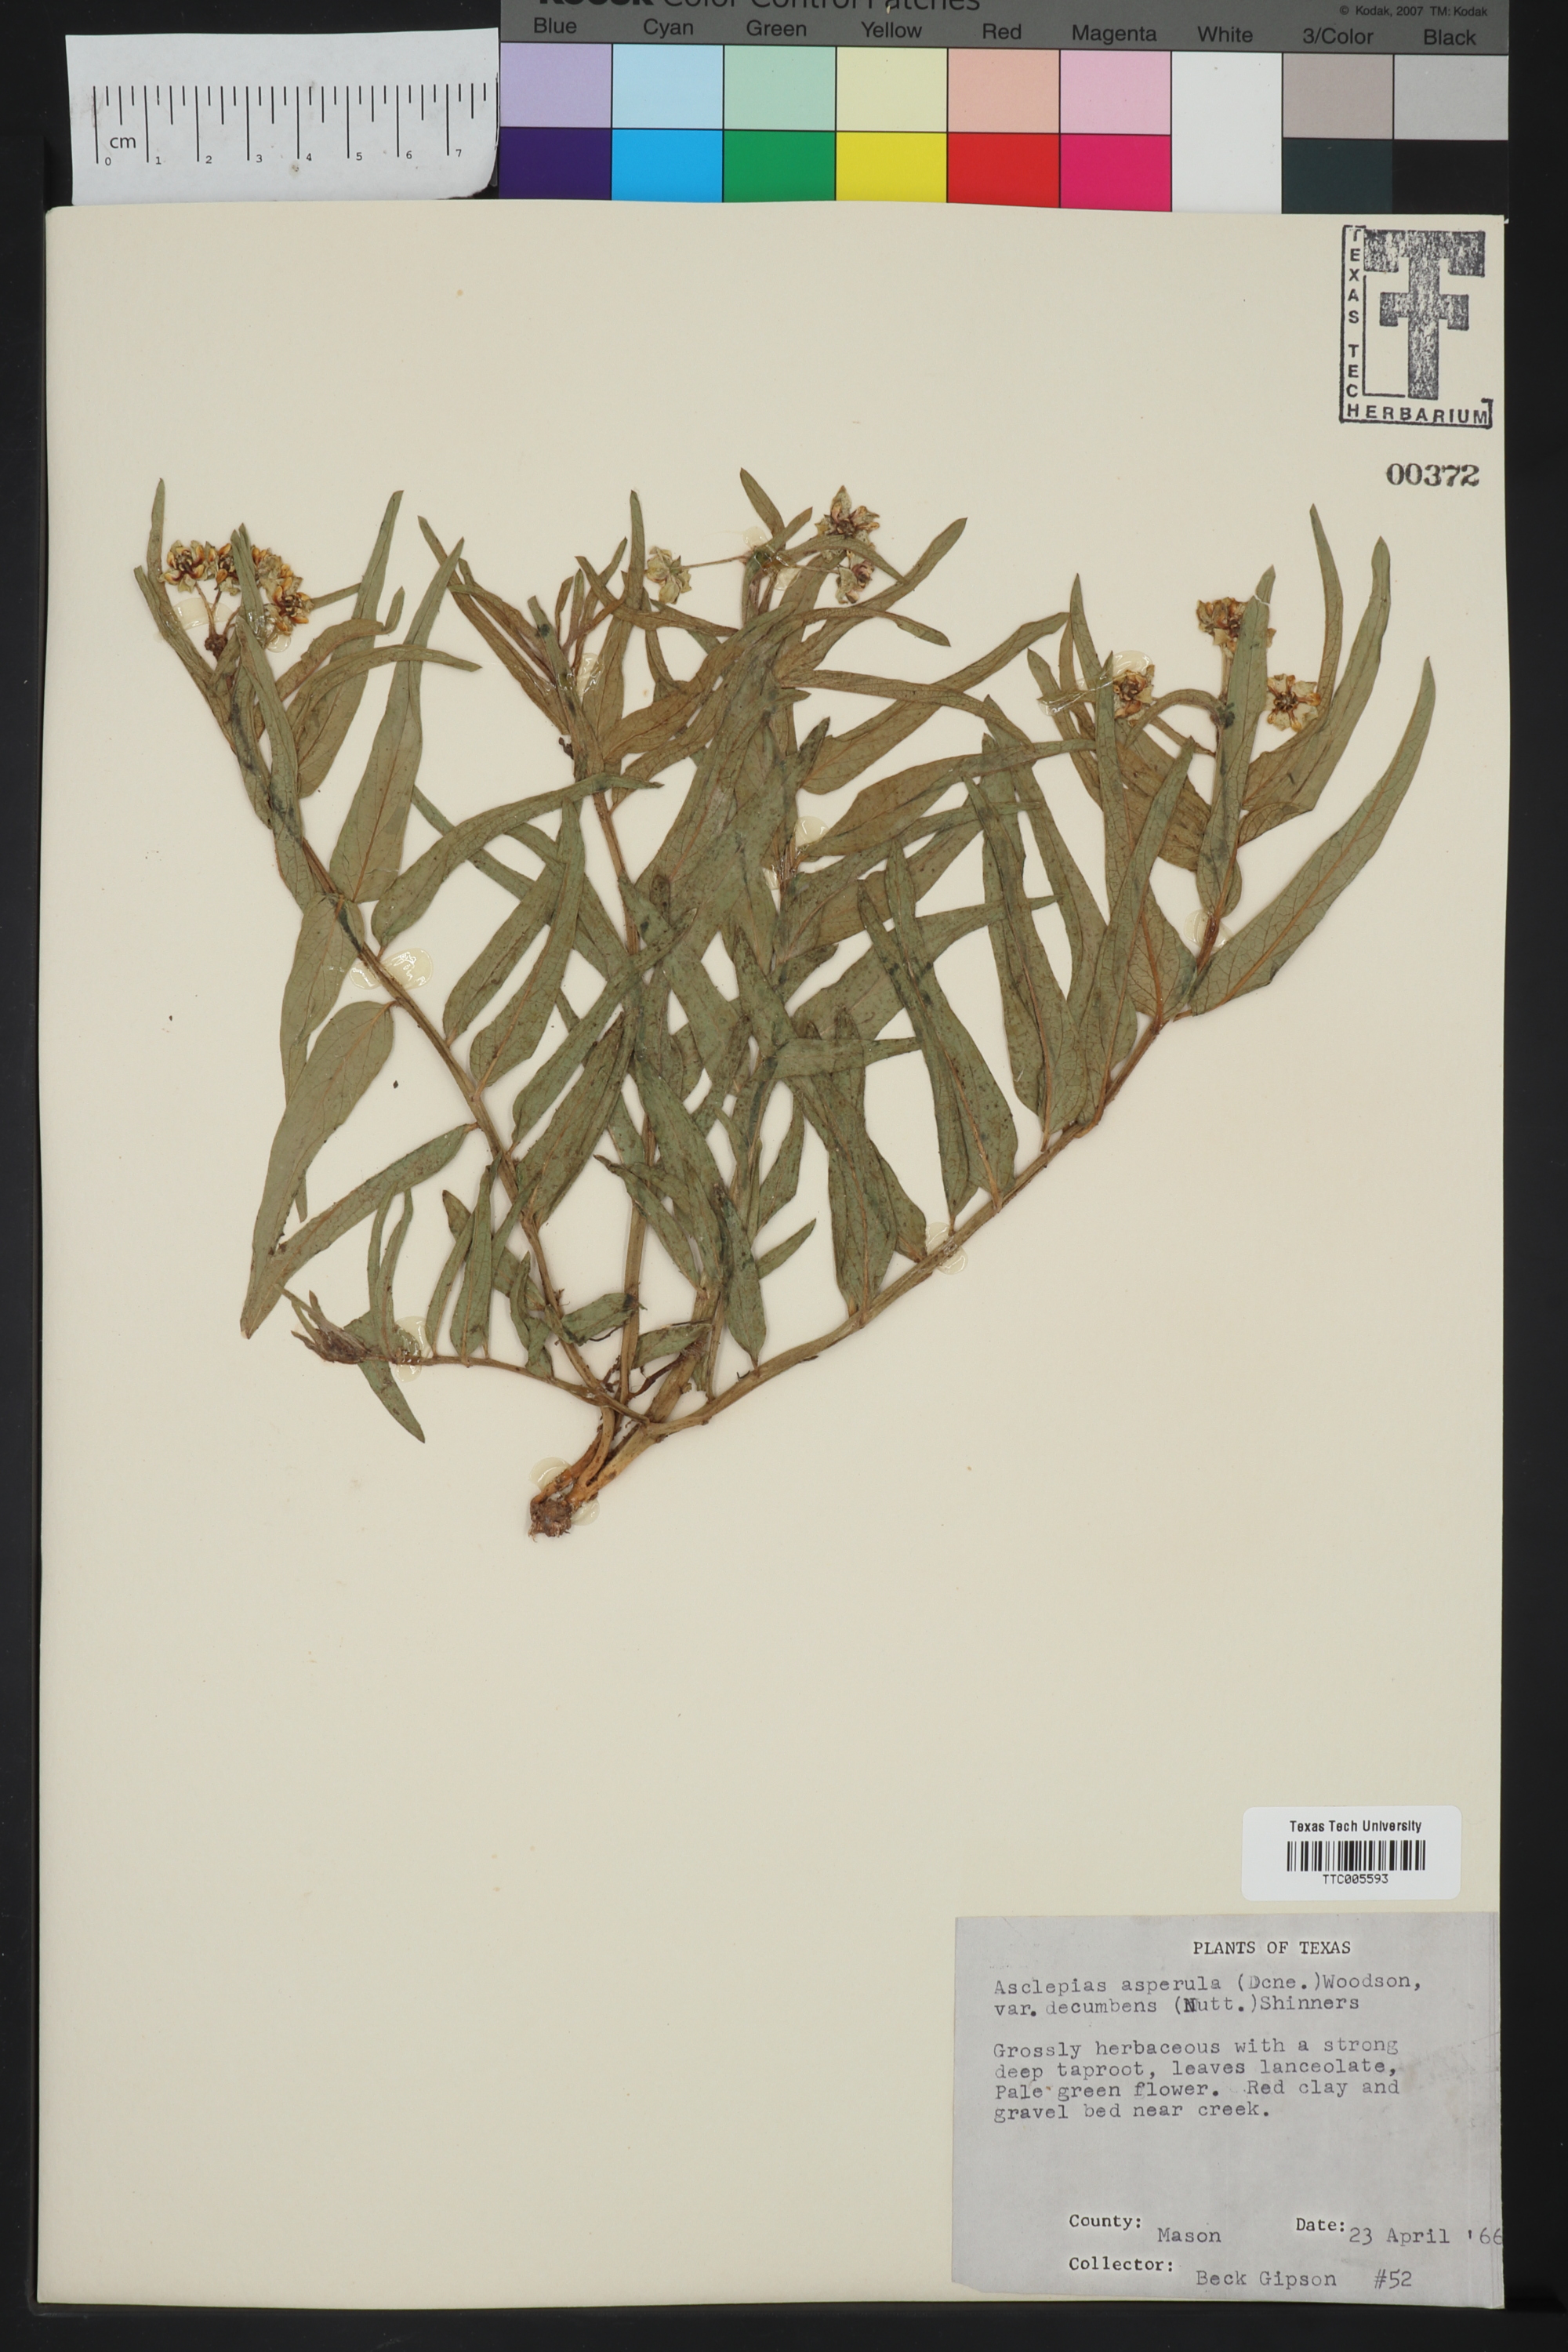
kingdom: Plantae
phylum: Tracheophyta
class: Magnoliopsida
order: Gentianales
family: Apocynaceae
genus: Asclepias
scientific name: Asclepias asperula
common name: Antelope horns
